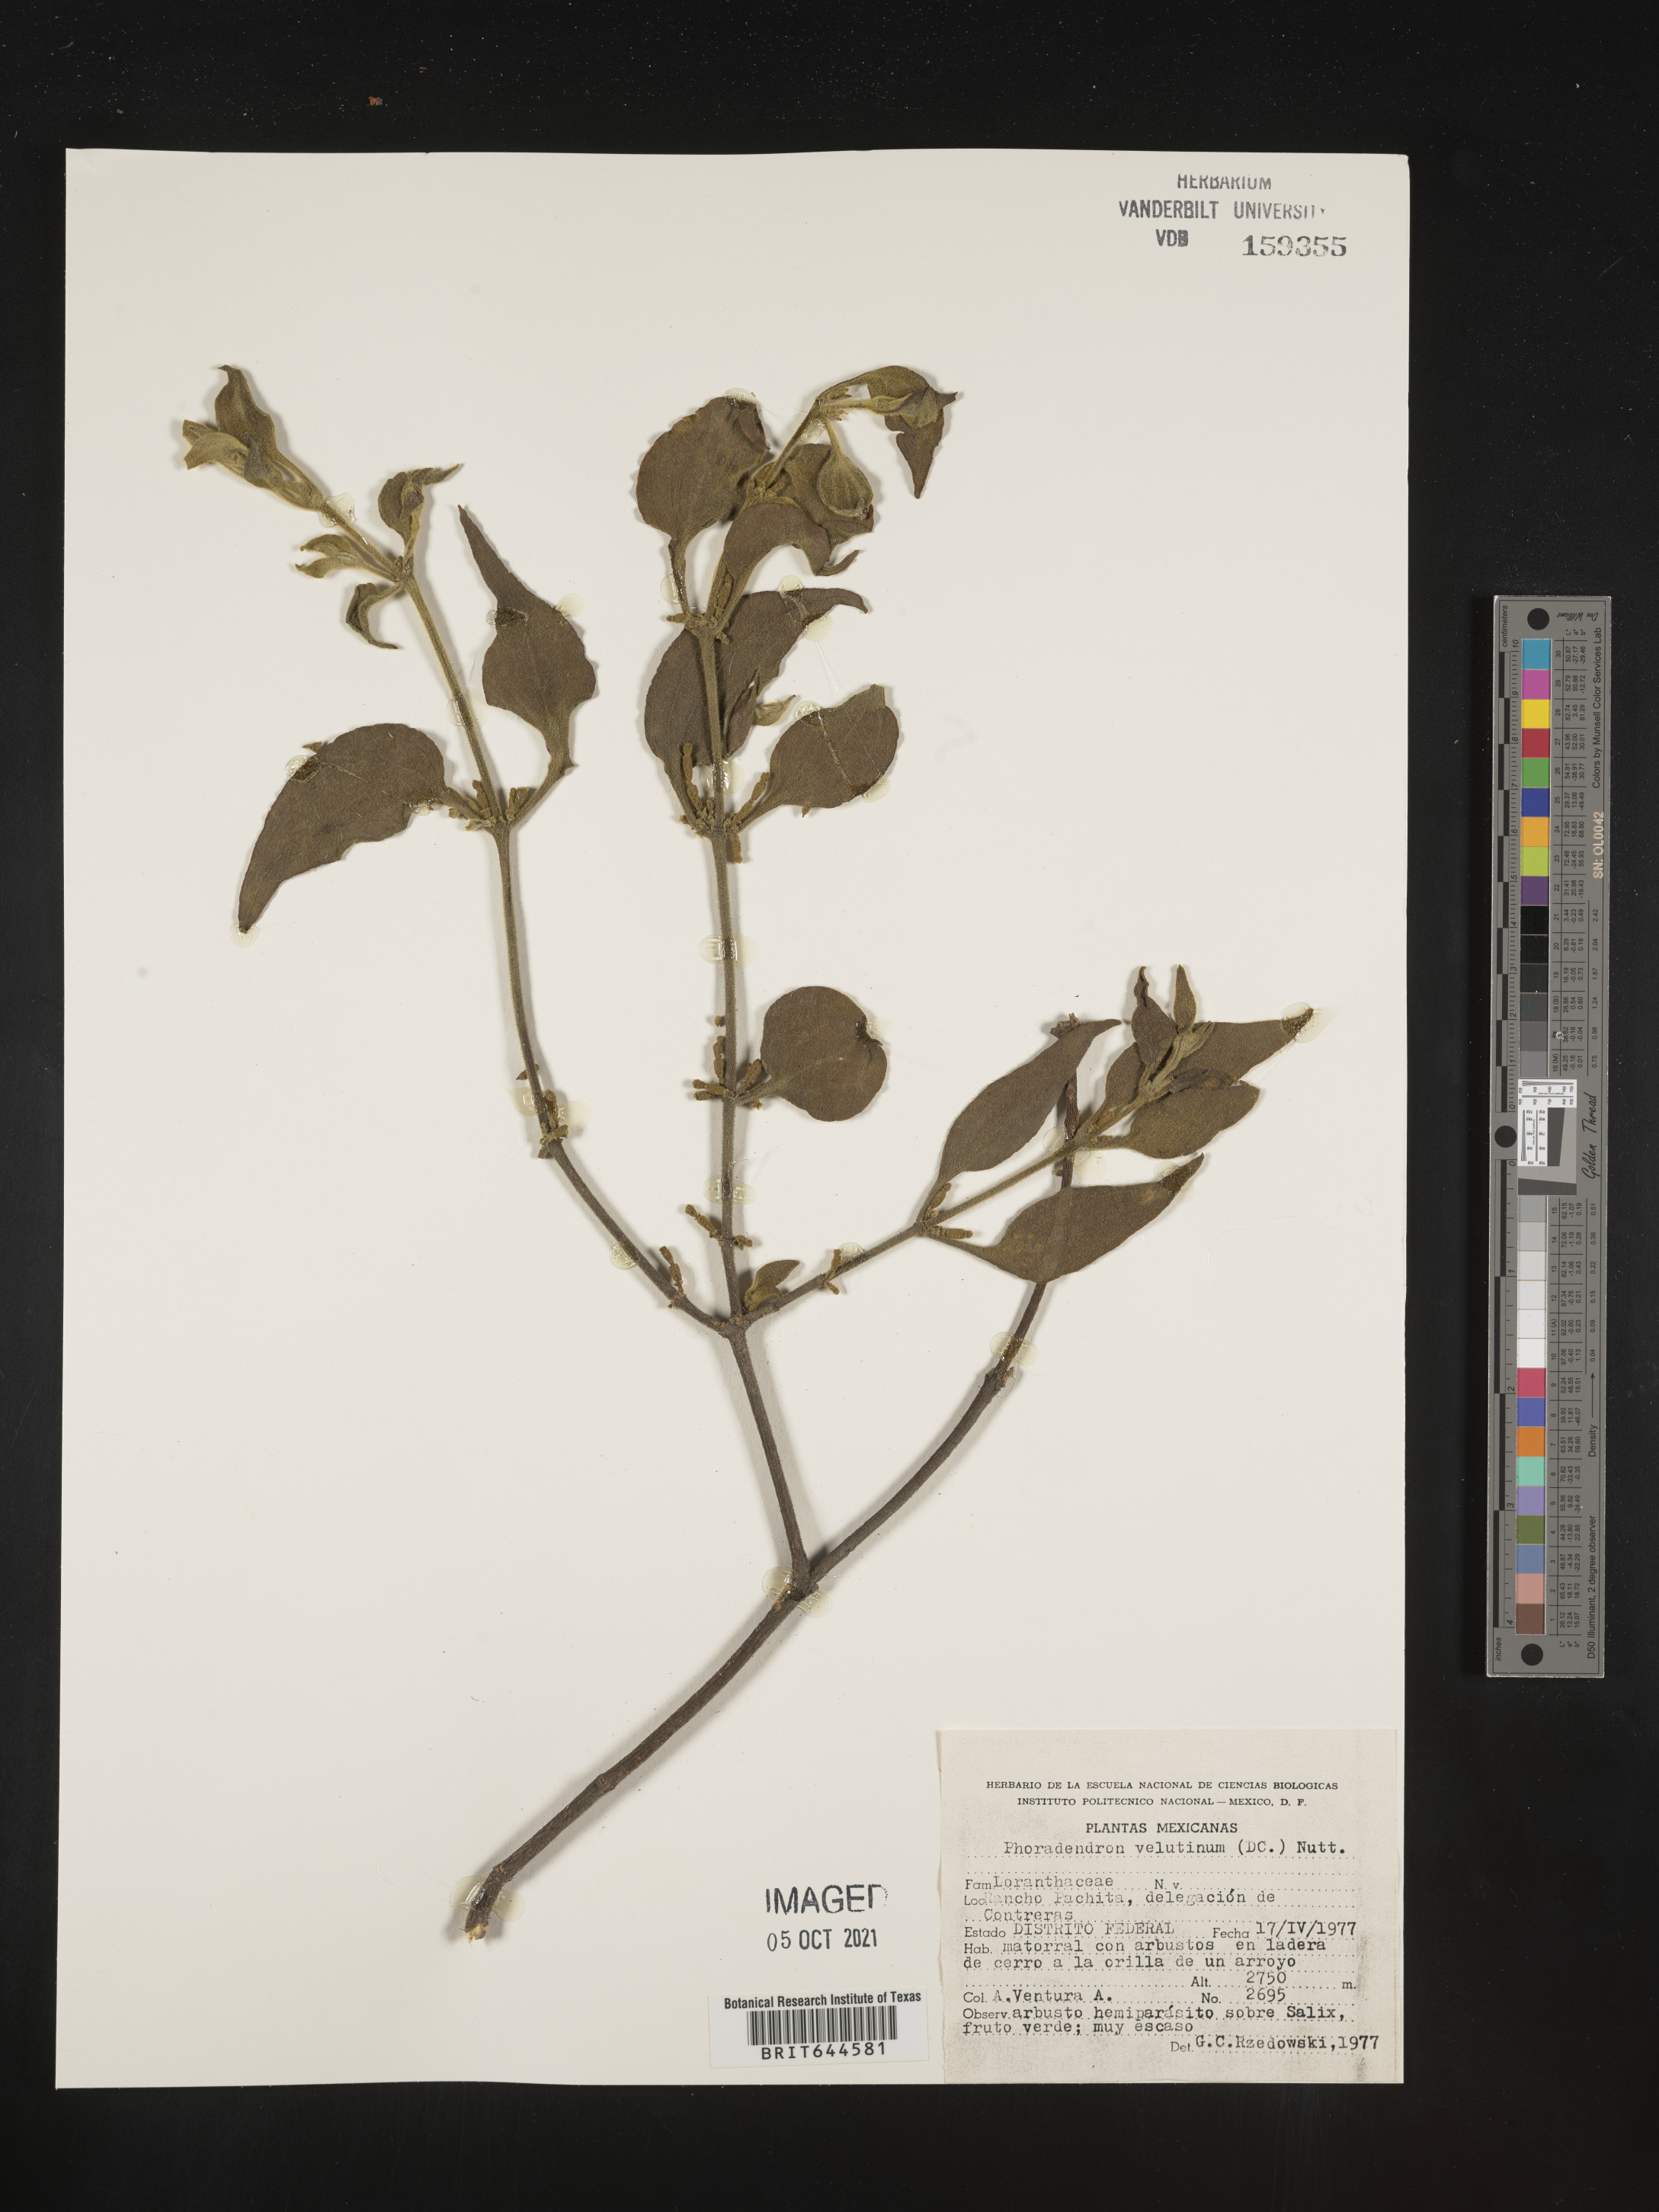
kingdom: Plantae
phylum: Tracheophyta
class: Magnoliopsida
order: Santalales
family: Viscaceae
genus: Phoradendron
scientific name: Phoradendron
